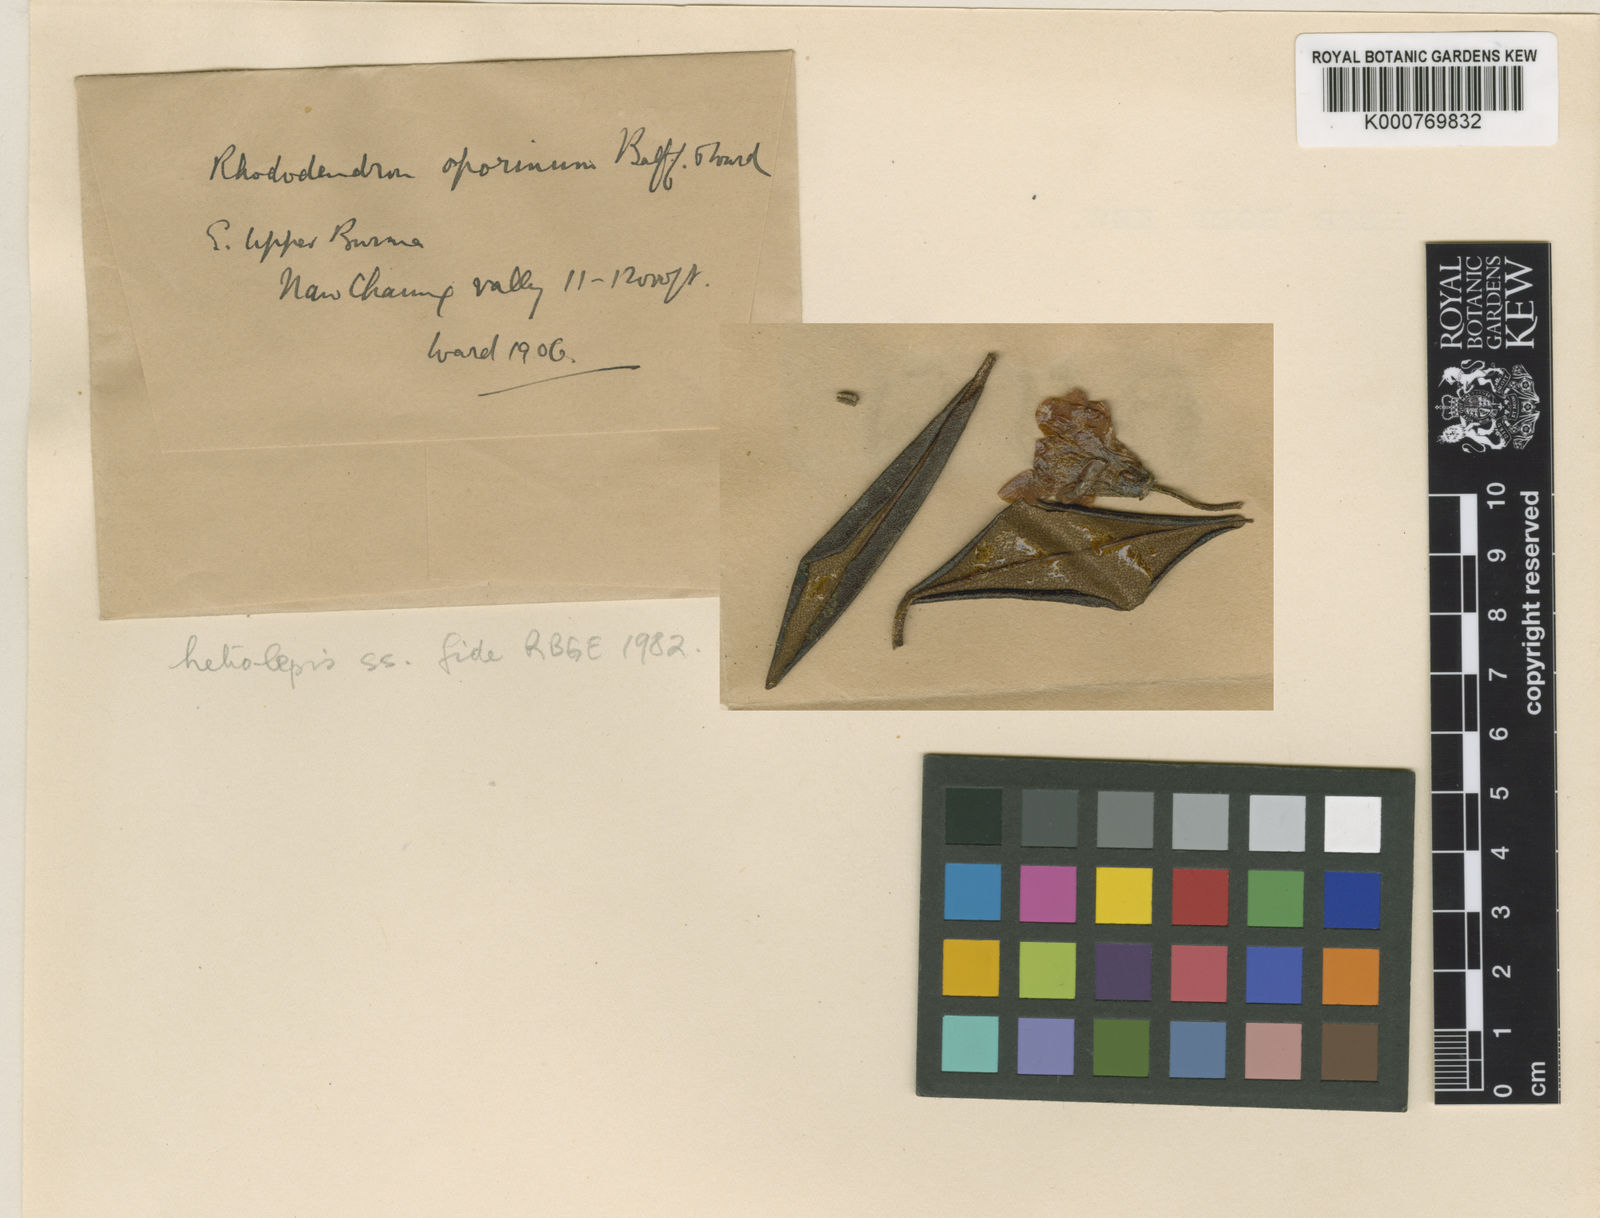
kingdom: Plantae
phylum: Tracheophyta
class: Magnoliopsida
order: Ericales
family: Ericaceae
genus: Rhododendron
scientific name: Rhododendron heliolepis
